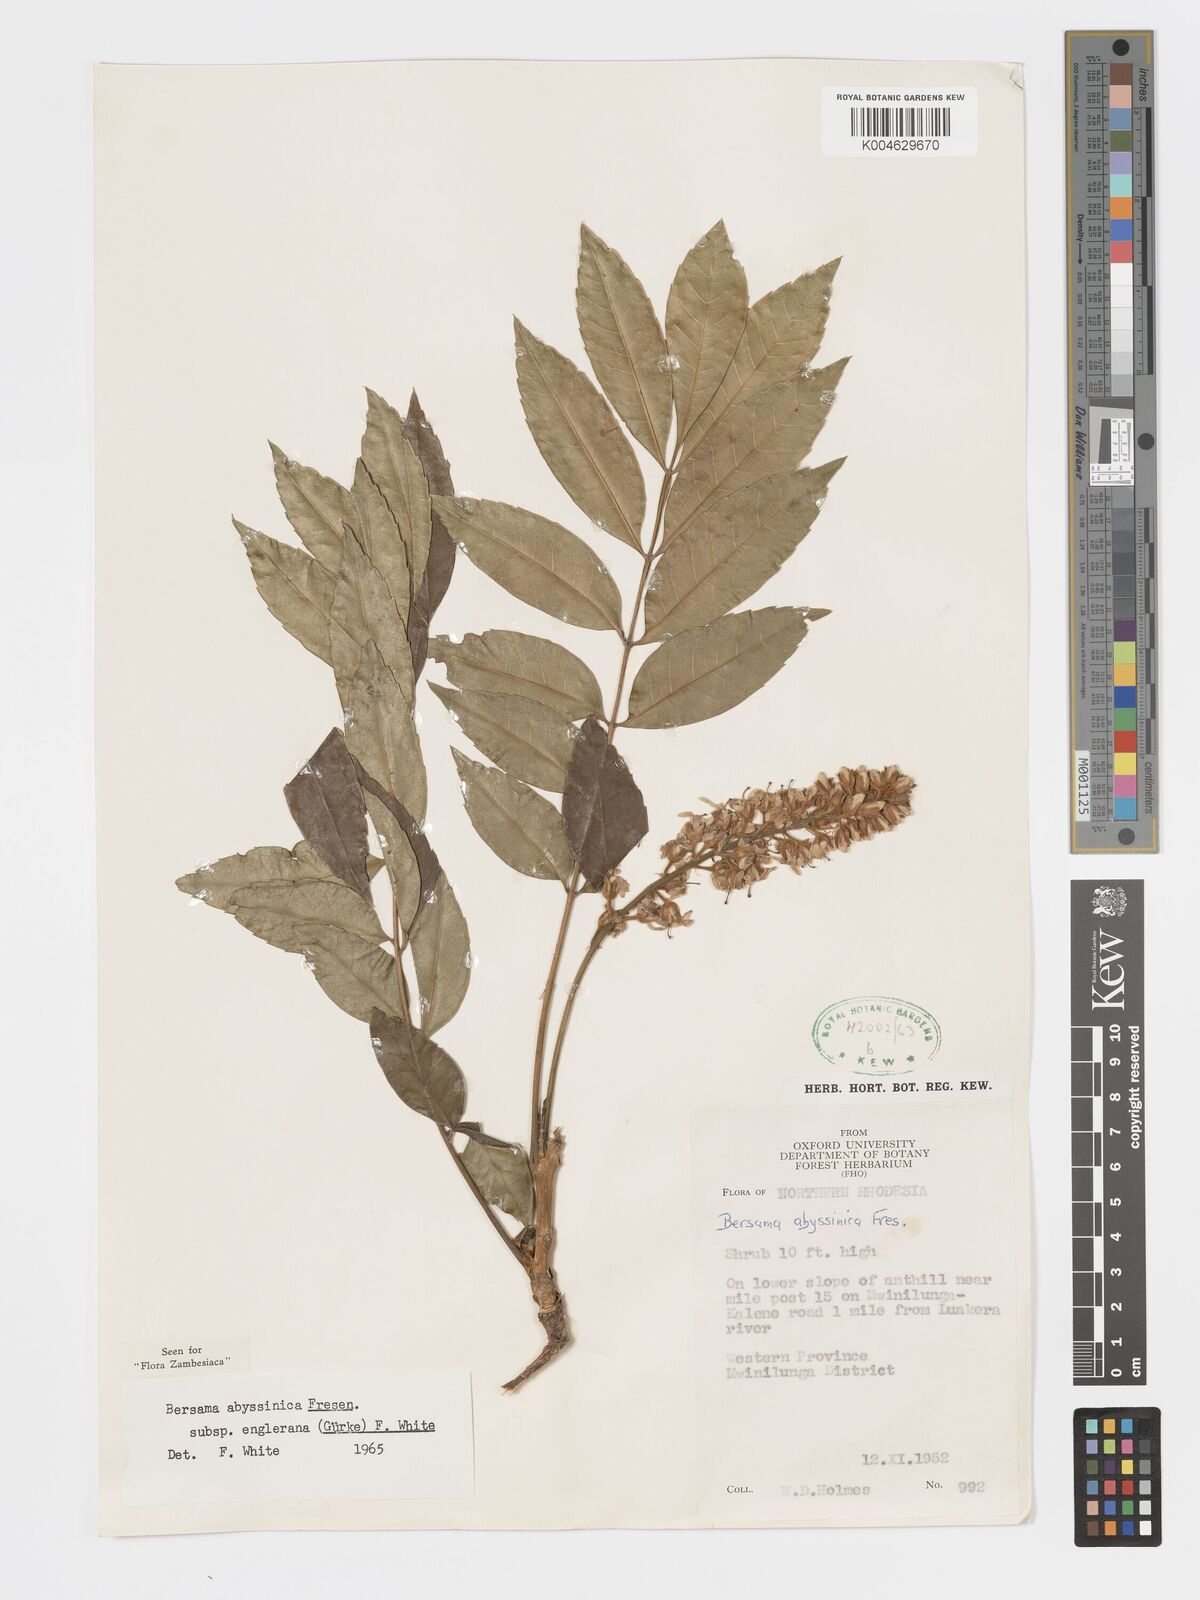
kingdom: Plantae
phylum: Tracheophyta
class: Magnoliopsida
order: Geraniales
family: Melianthaceae
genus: Bersama
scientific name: Bersama abyssinica
